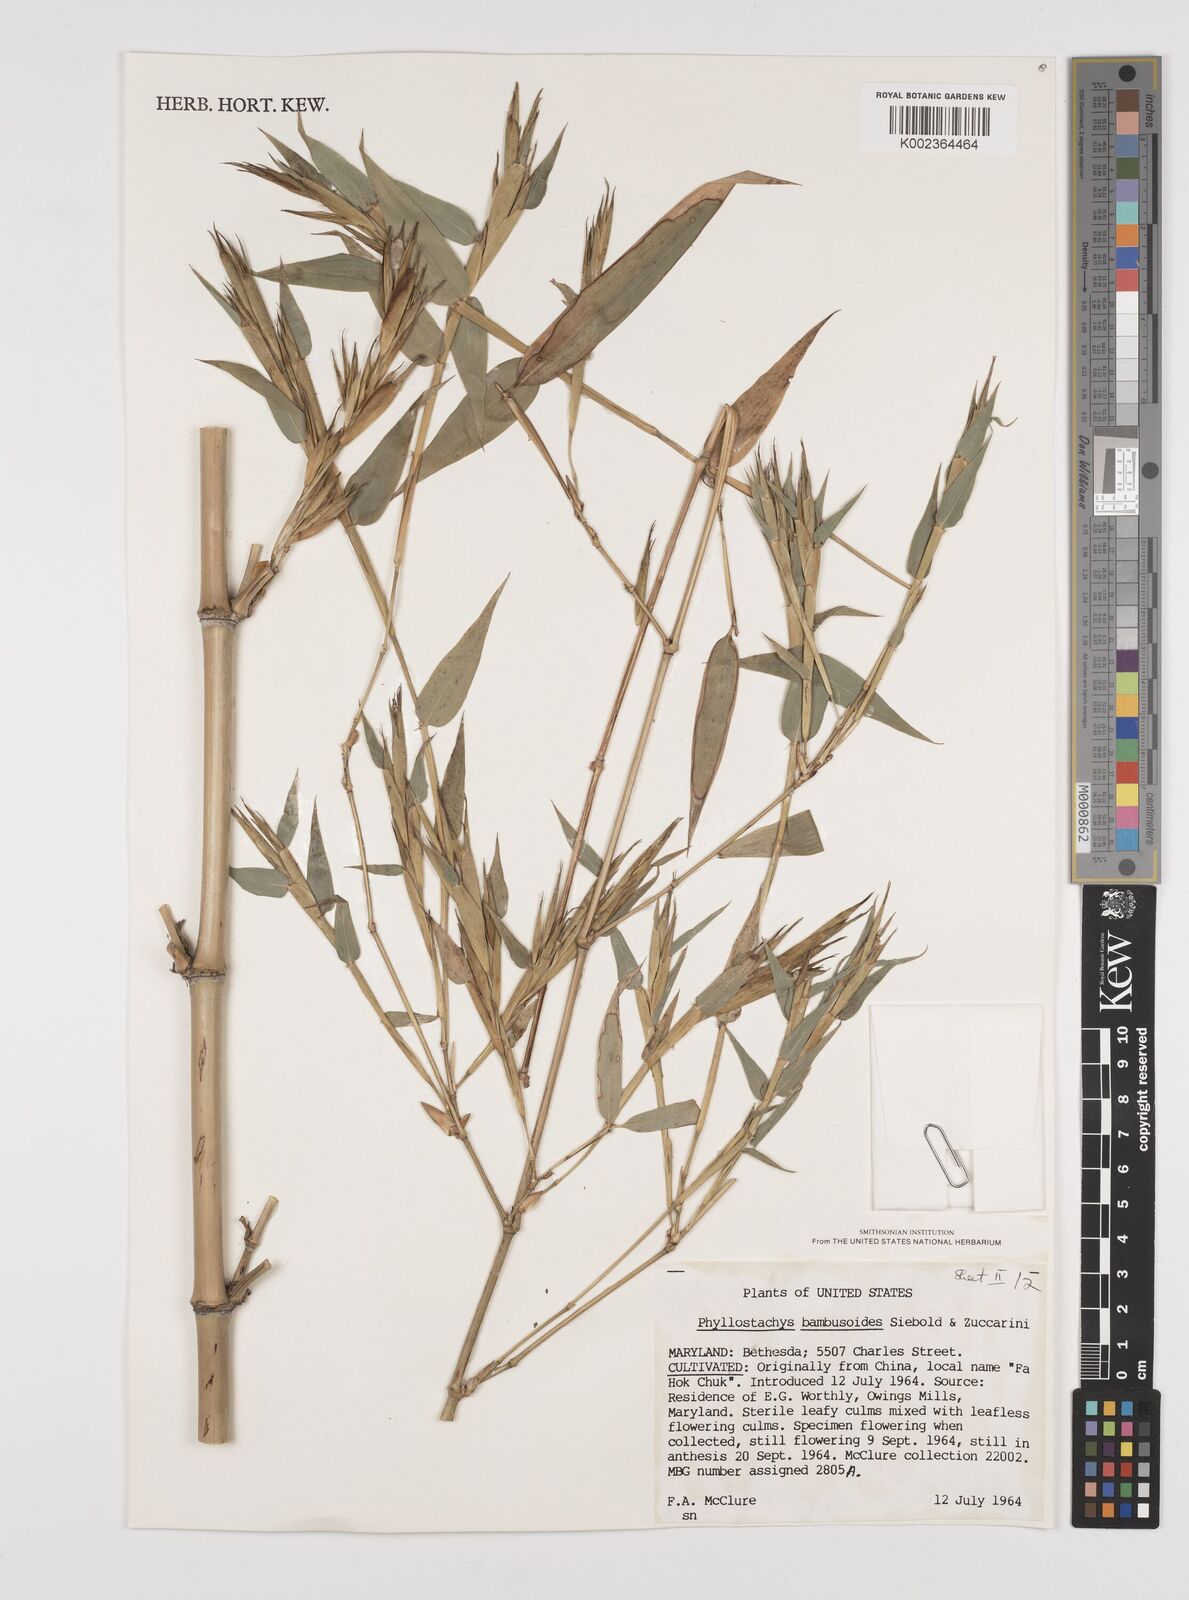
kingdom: Plantae
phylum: Tracheophyta
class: Liliopsida
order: Poales
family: Poaceae
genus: Phyllostachys
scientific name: Phyllostachys reticulata
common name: Bamboo
